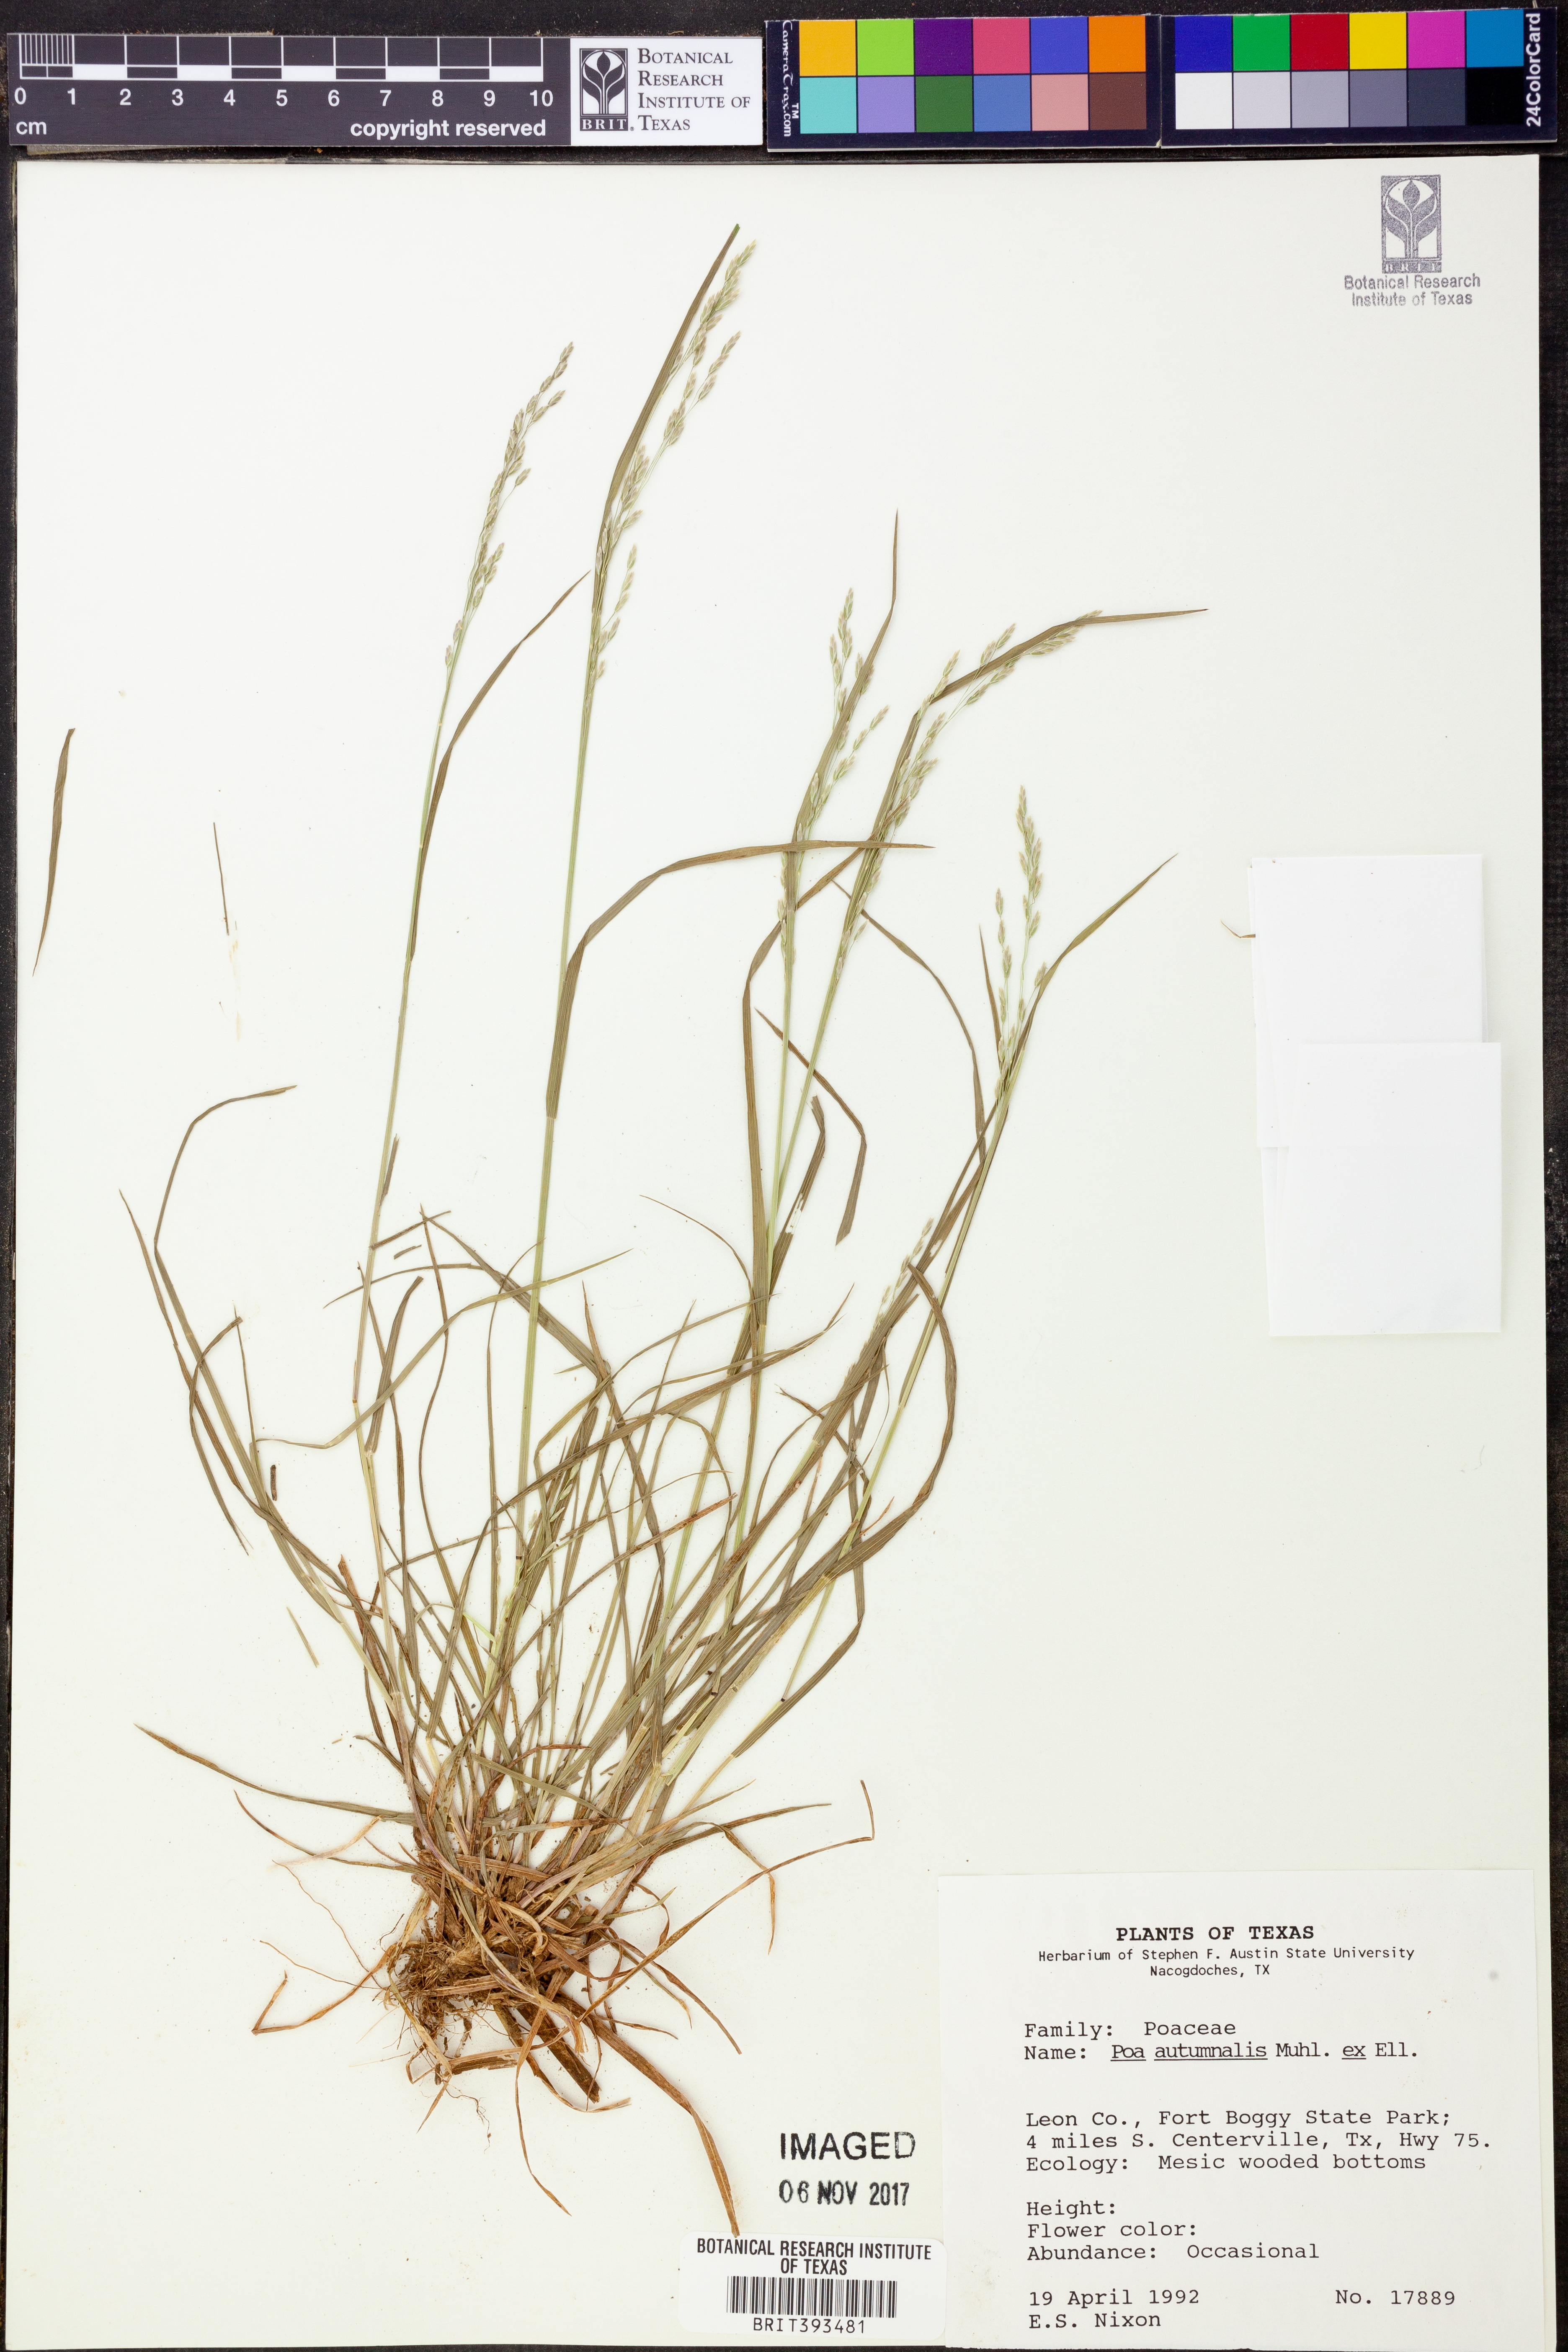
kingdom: Plantae
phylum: Tracheophyta
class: Liliopsida
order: Poales
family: Poaceae
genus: Poa
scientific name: Poa autumnalis
